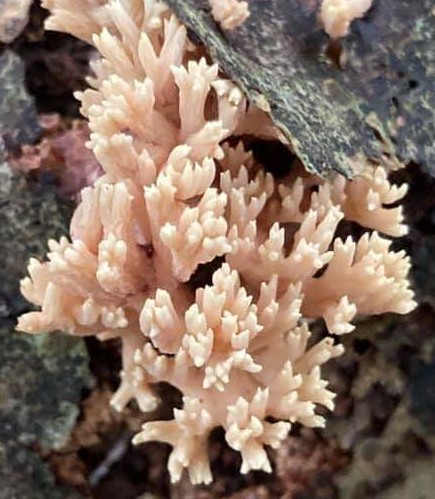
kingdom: Fungi
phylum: Basidiomycota
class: Agaricomycetes
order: Gomphales
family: Gomphaceae
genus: Ramaria
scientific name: Ramaria stricta
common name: rank koralsvamp
